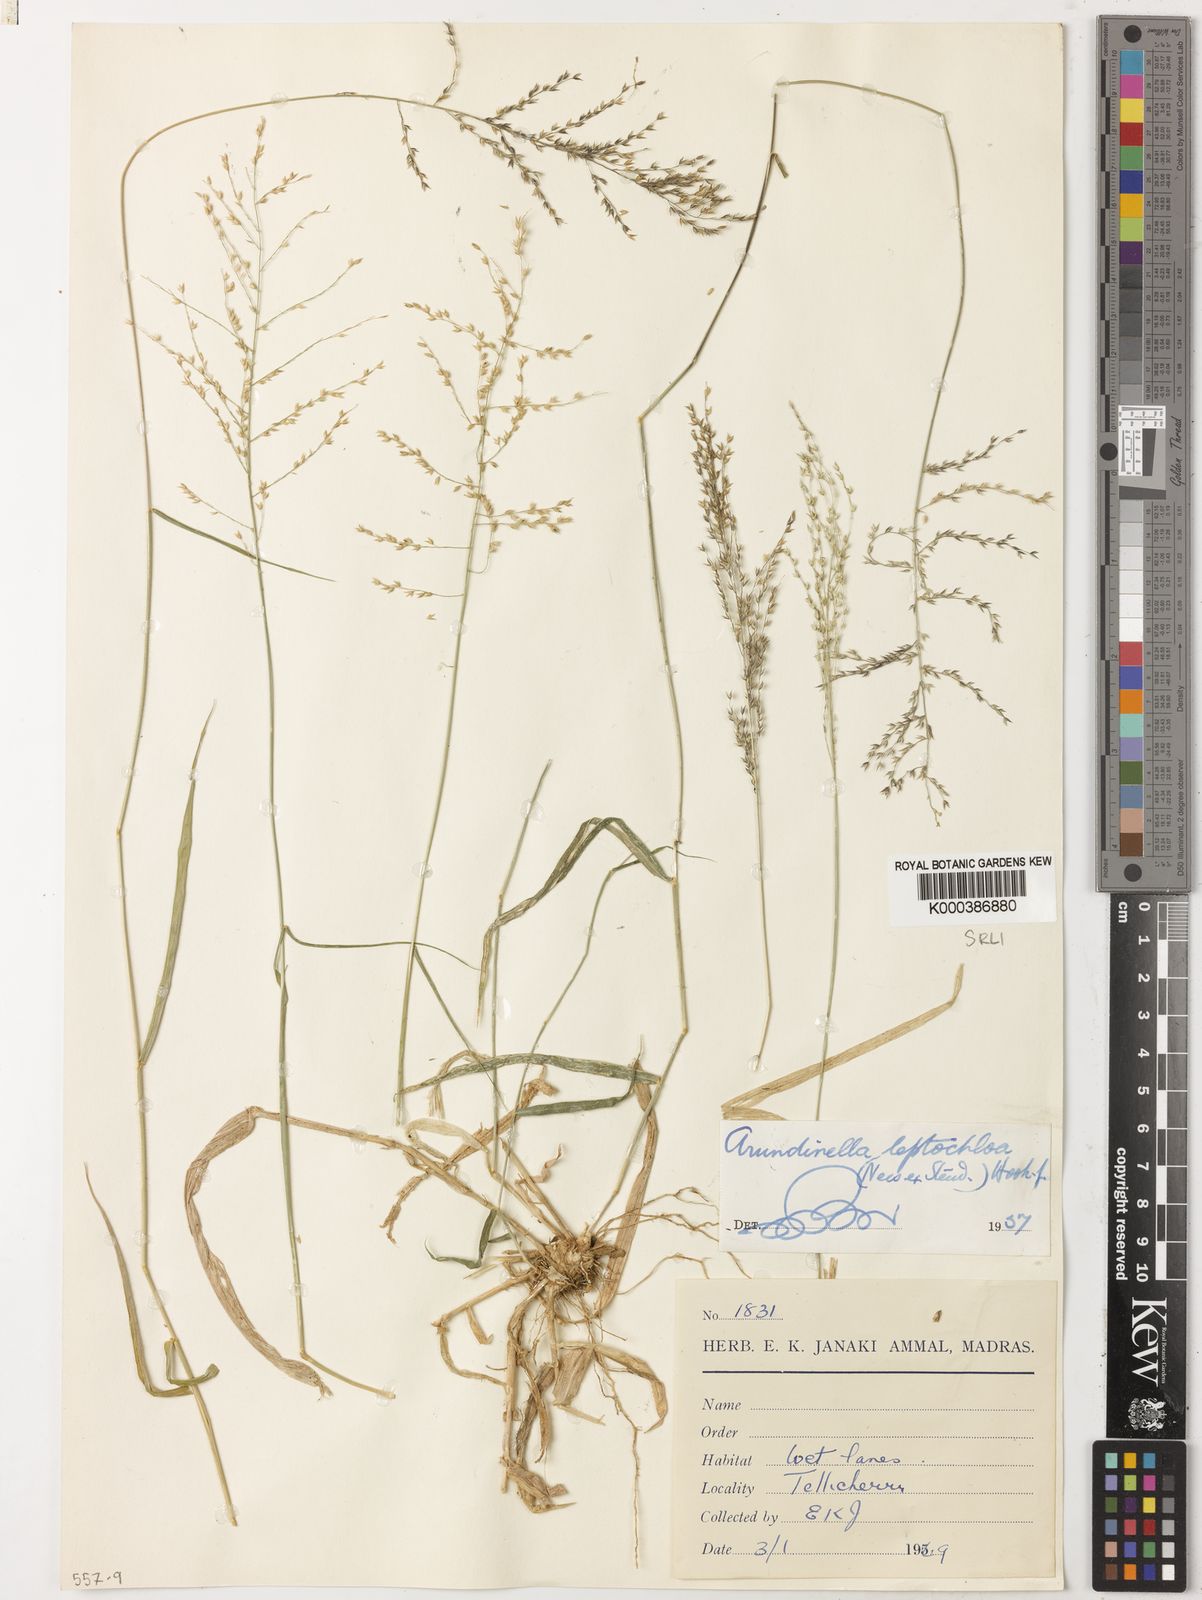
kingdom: Plantae
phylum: Tracheophyta
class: Liliopsida
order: Poales
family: Poaceae
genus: Arundinella
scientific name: Arundinella leptochloa
